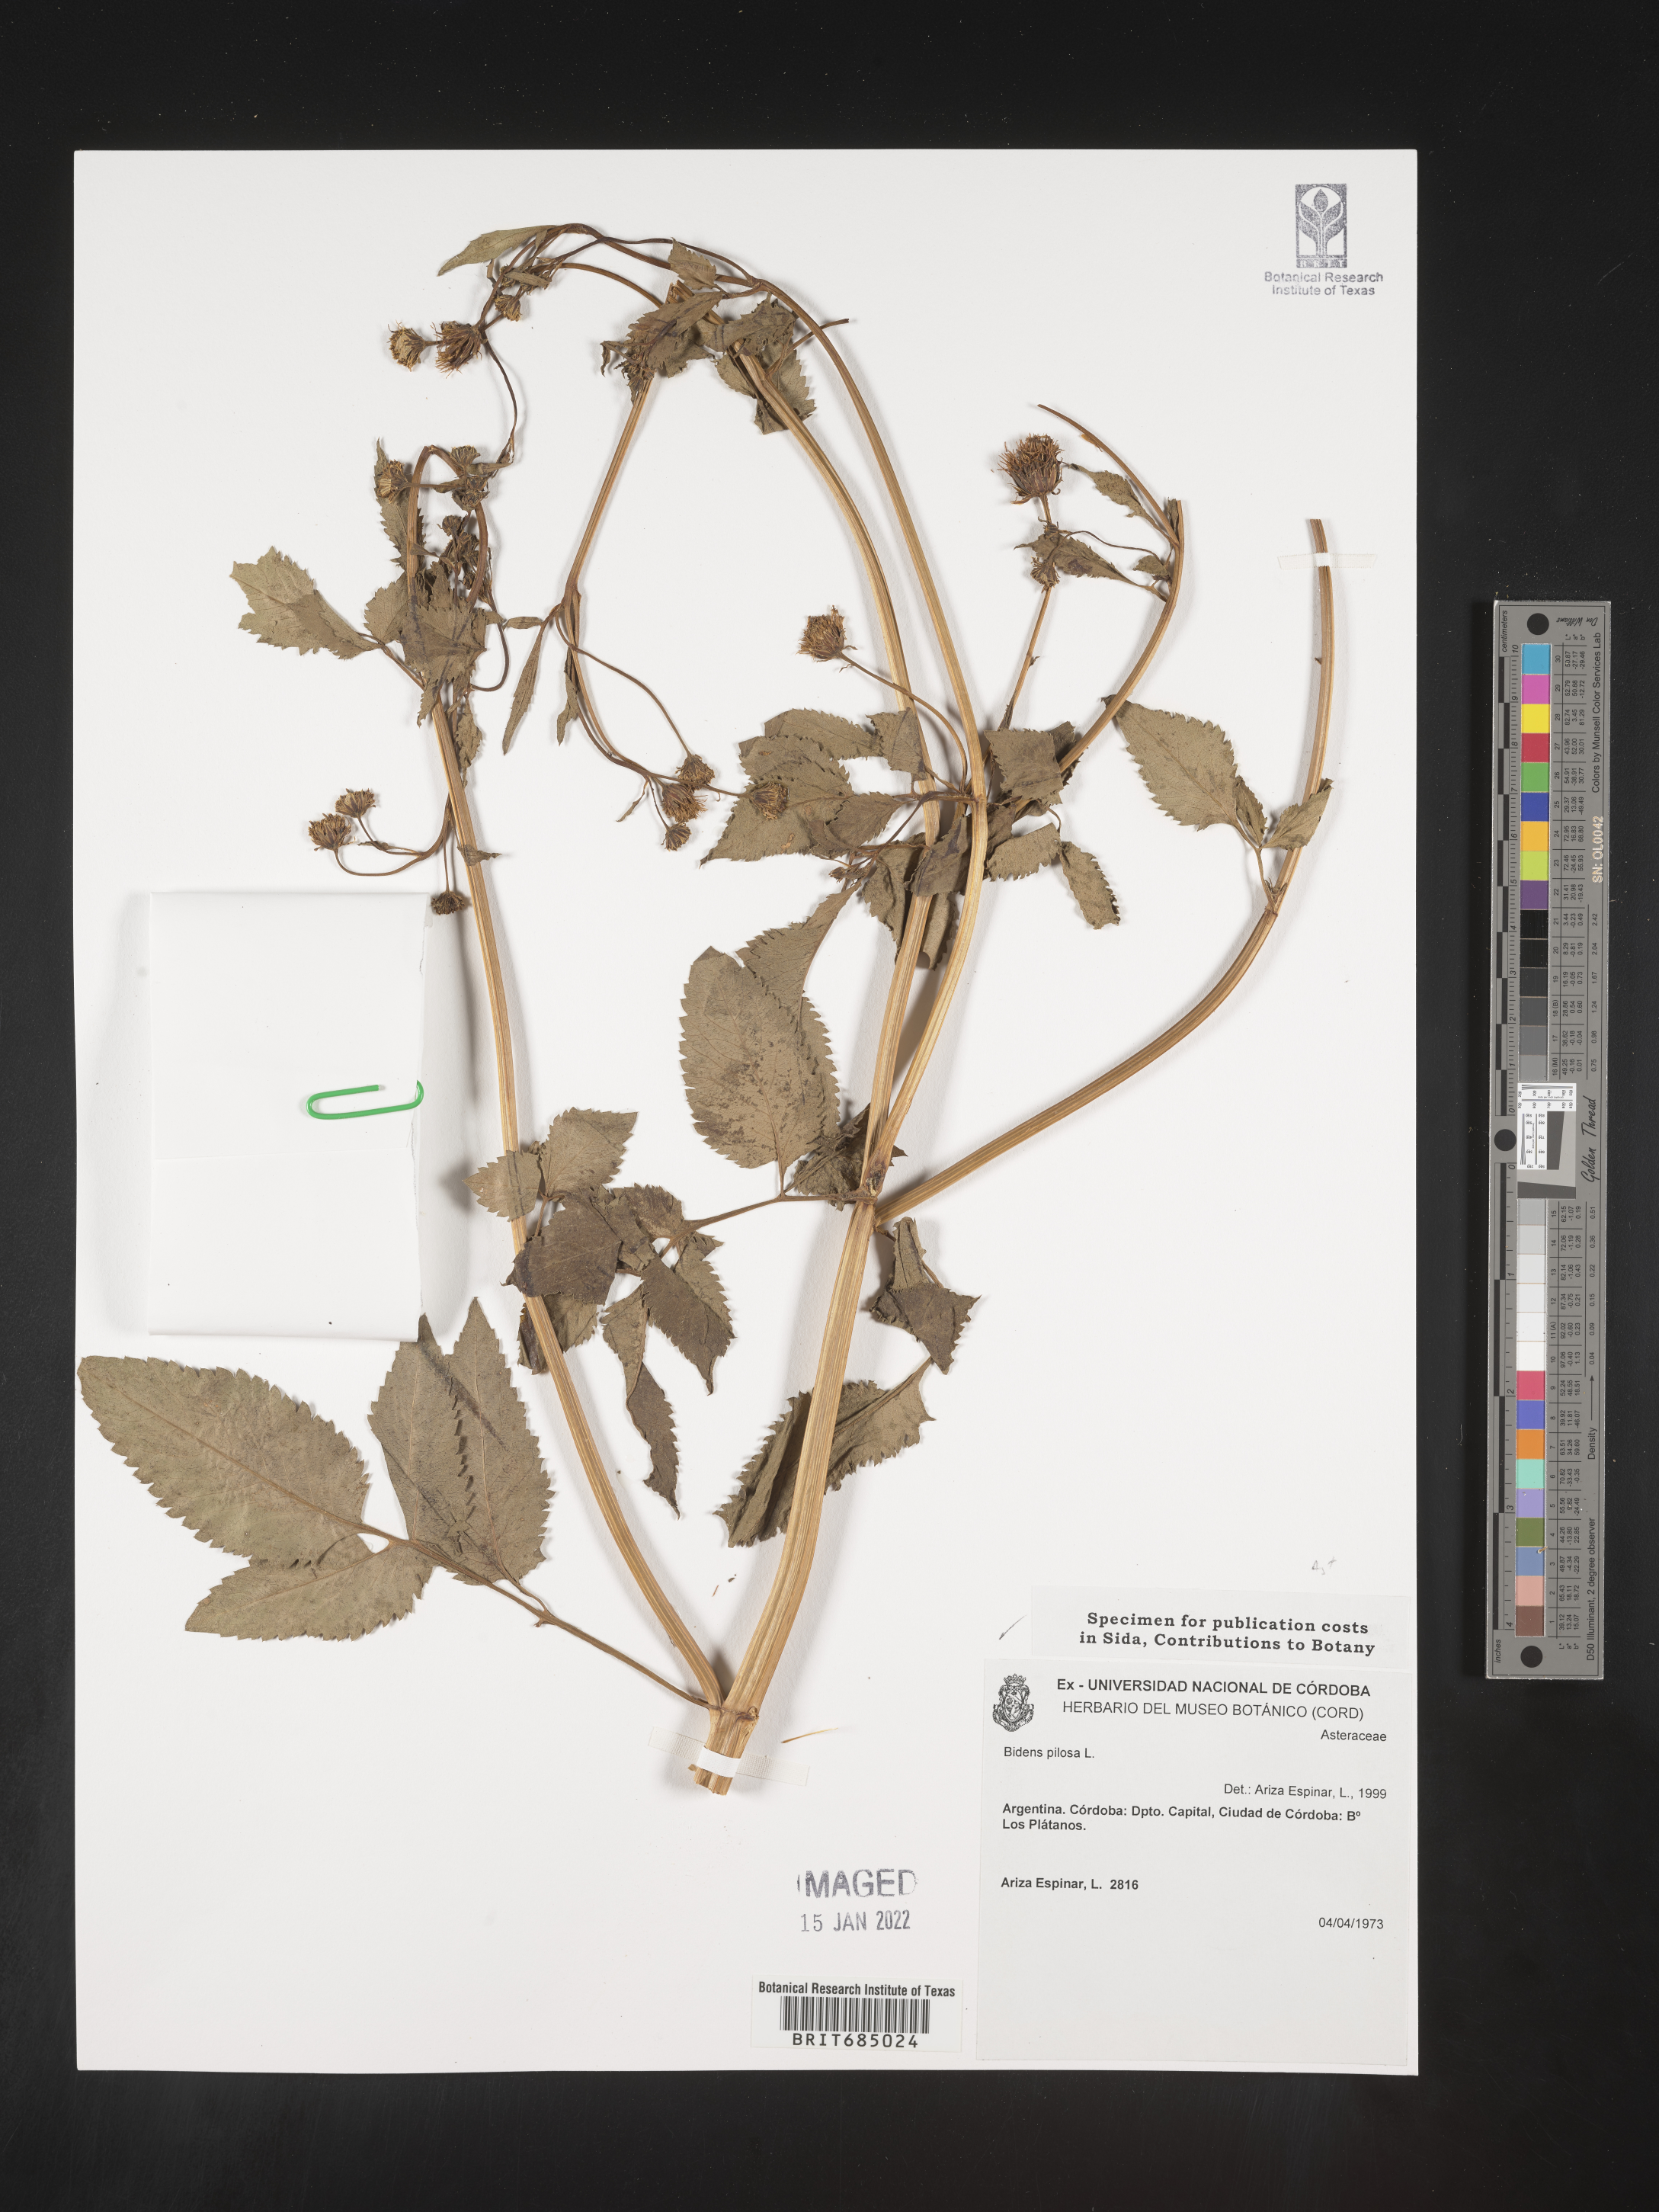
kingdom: Plantae
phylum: Tracheophyta
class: Magnoliopsida
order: Asterales
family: Asteraceae
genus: Bidens
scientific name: Bidens
